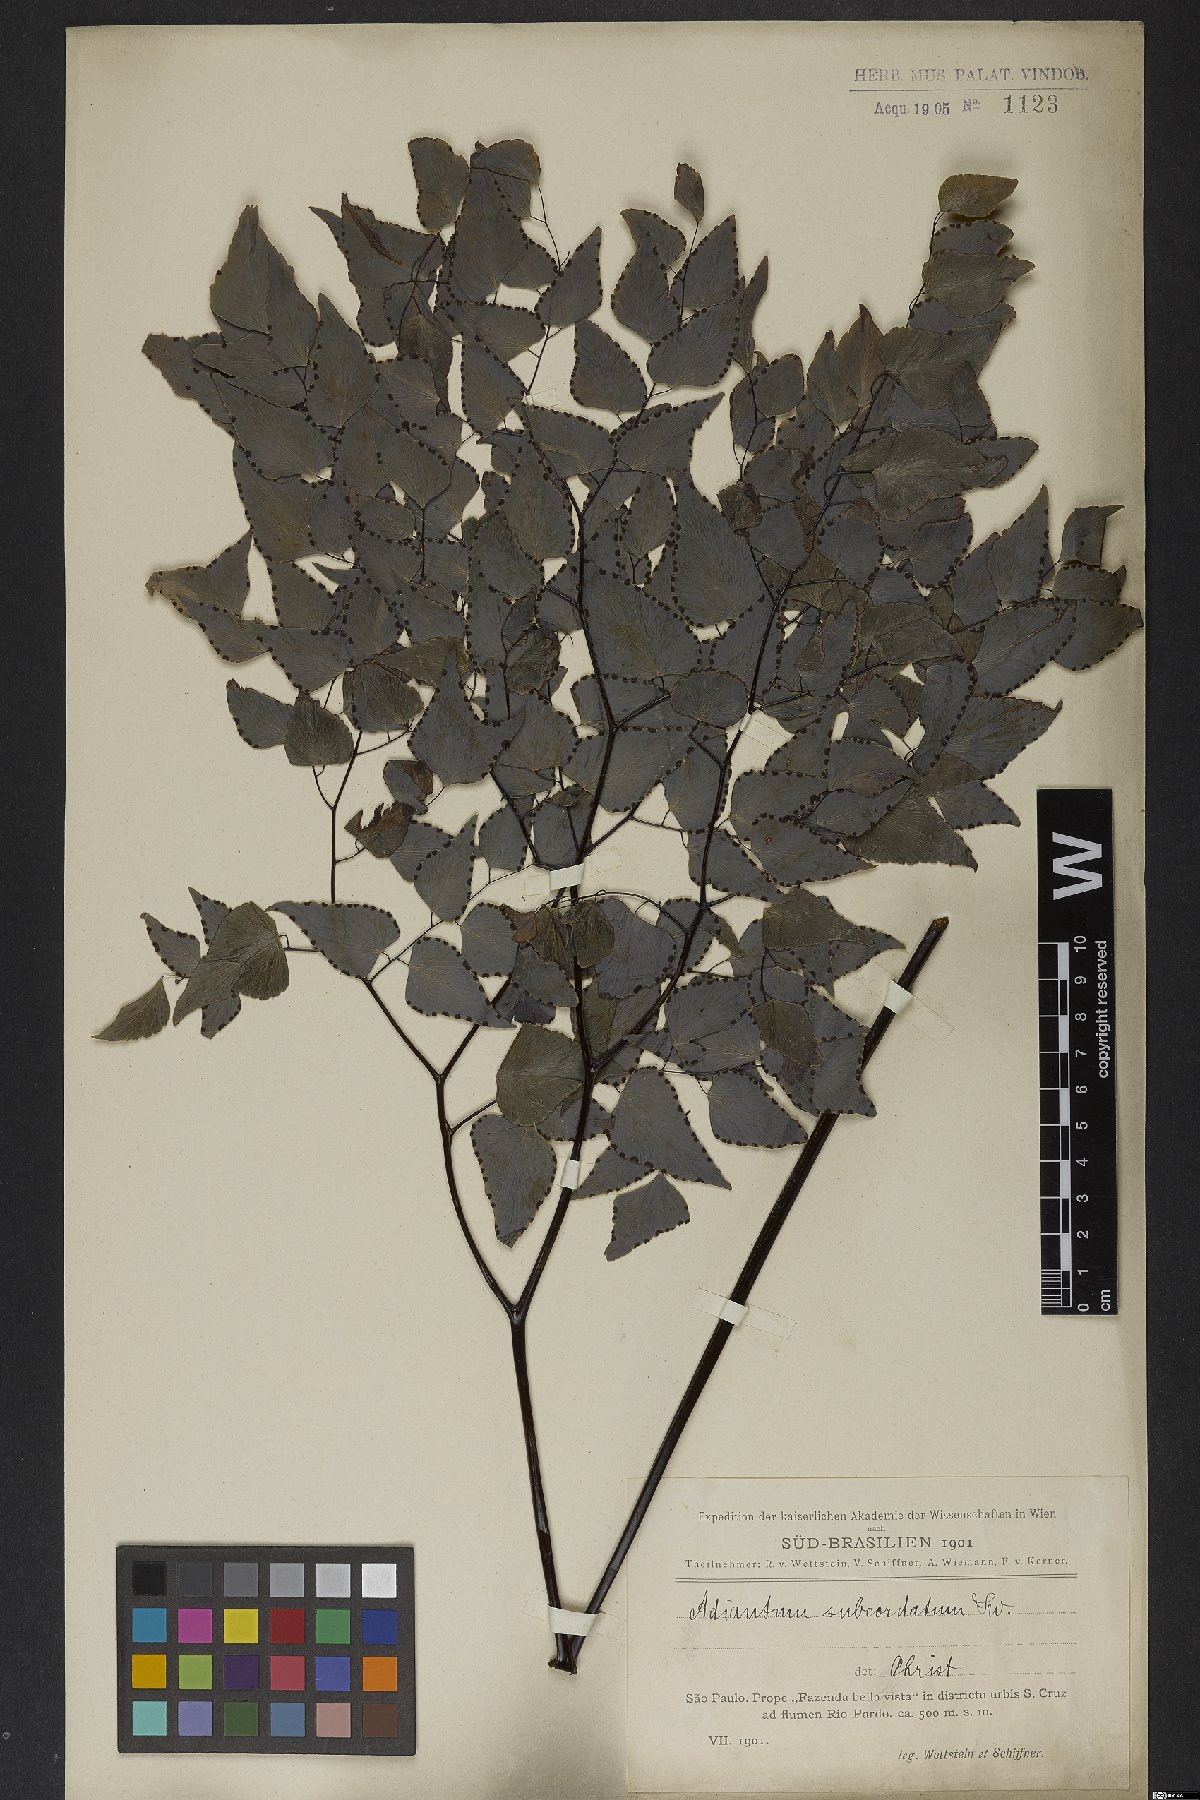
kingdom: Plantae
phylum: Tracheophyta
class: Polypodiopsida
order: Polypodiales
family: Pteridaceae
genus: Adiantum
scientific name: Adiantum subcordatum
